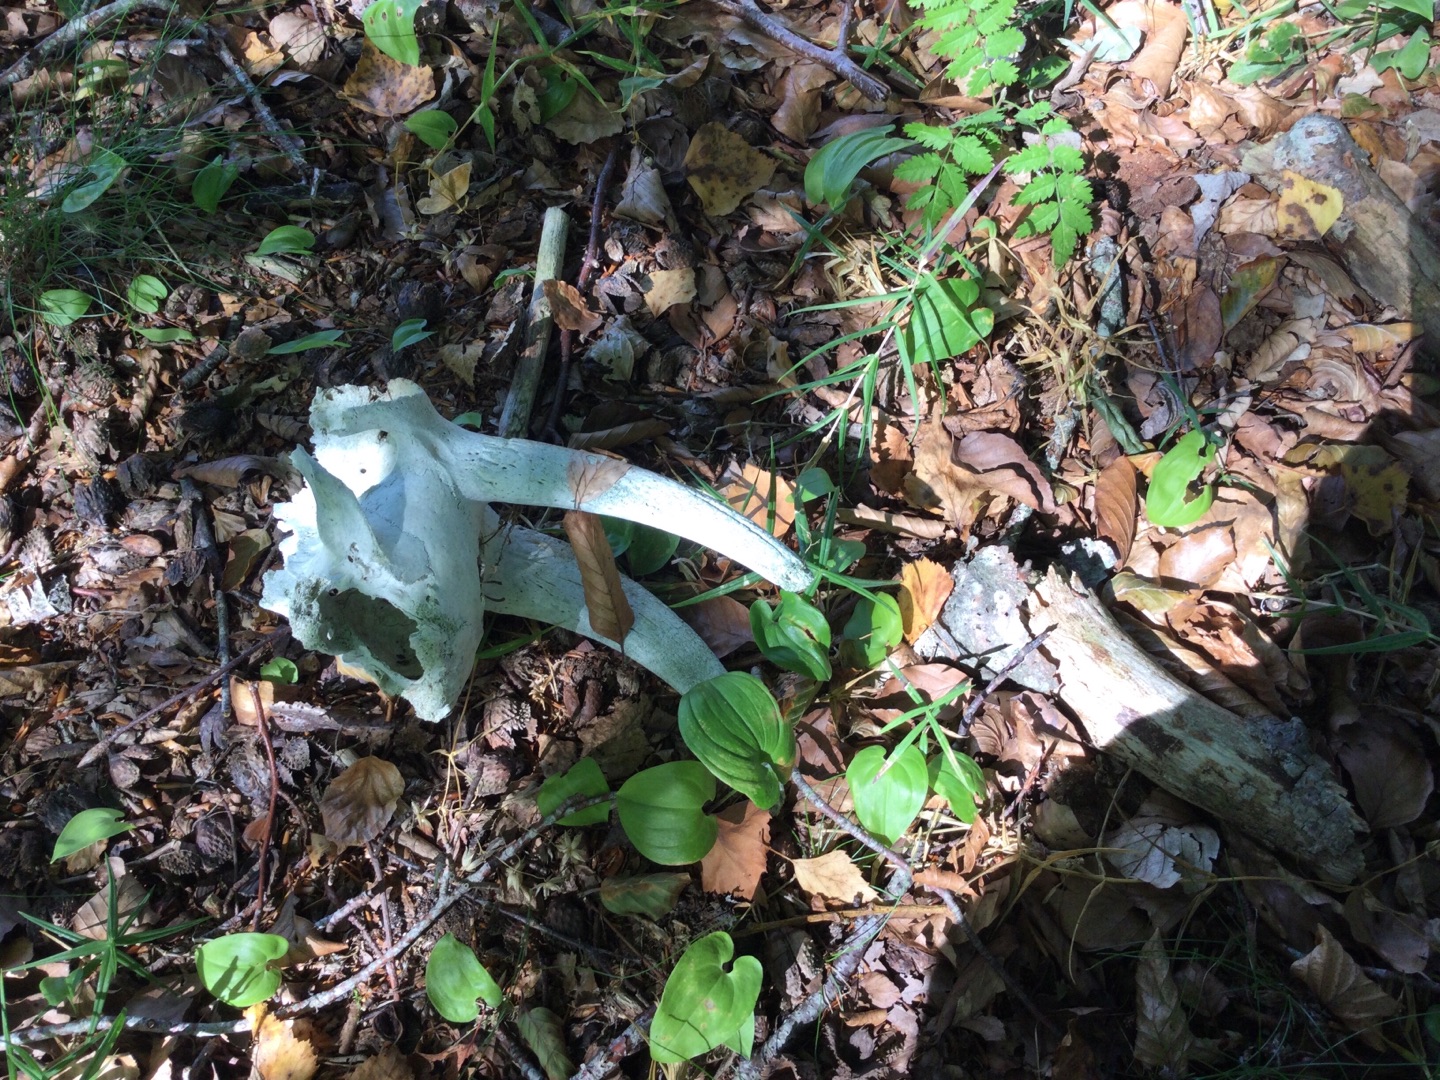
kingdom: Animalia
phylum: Chordata
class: Mammalia
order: Artiodactyla
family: Bovidae
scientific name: Bovidae
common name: Skedehornede
